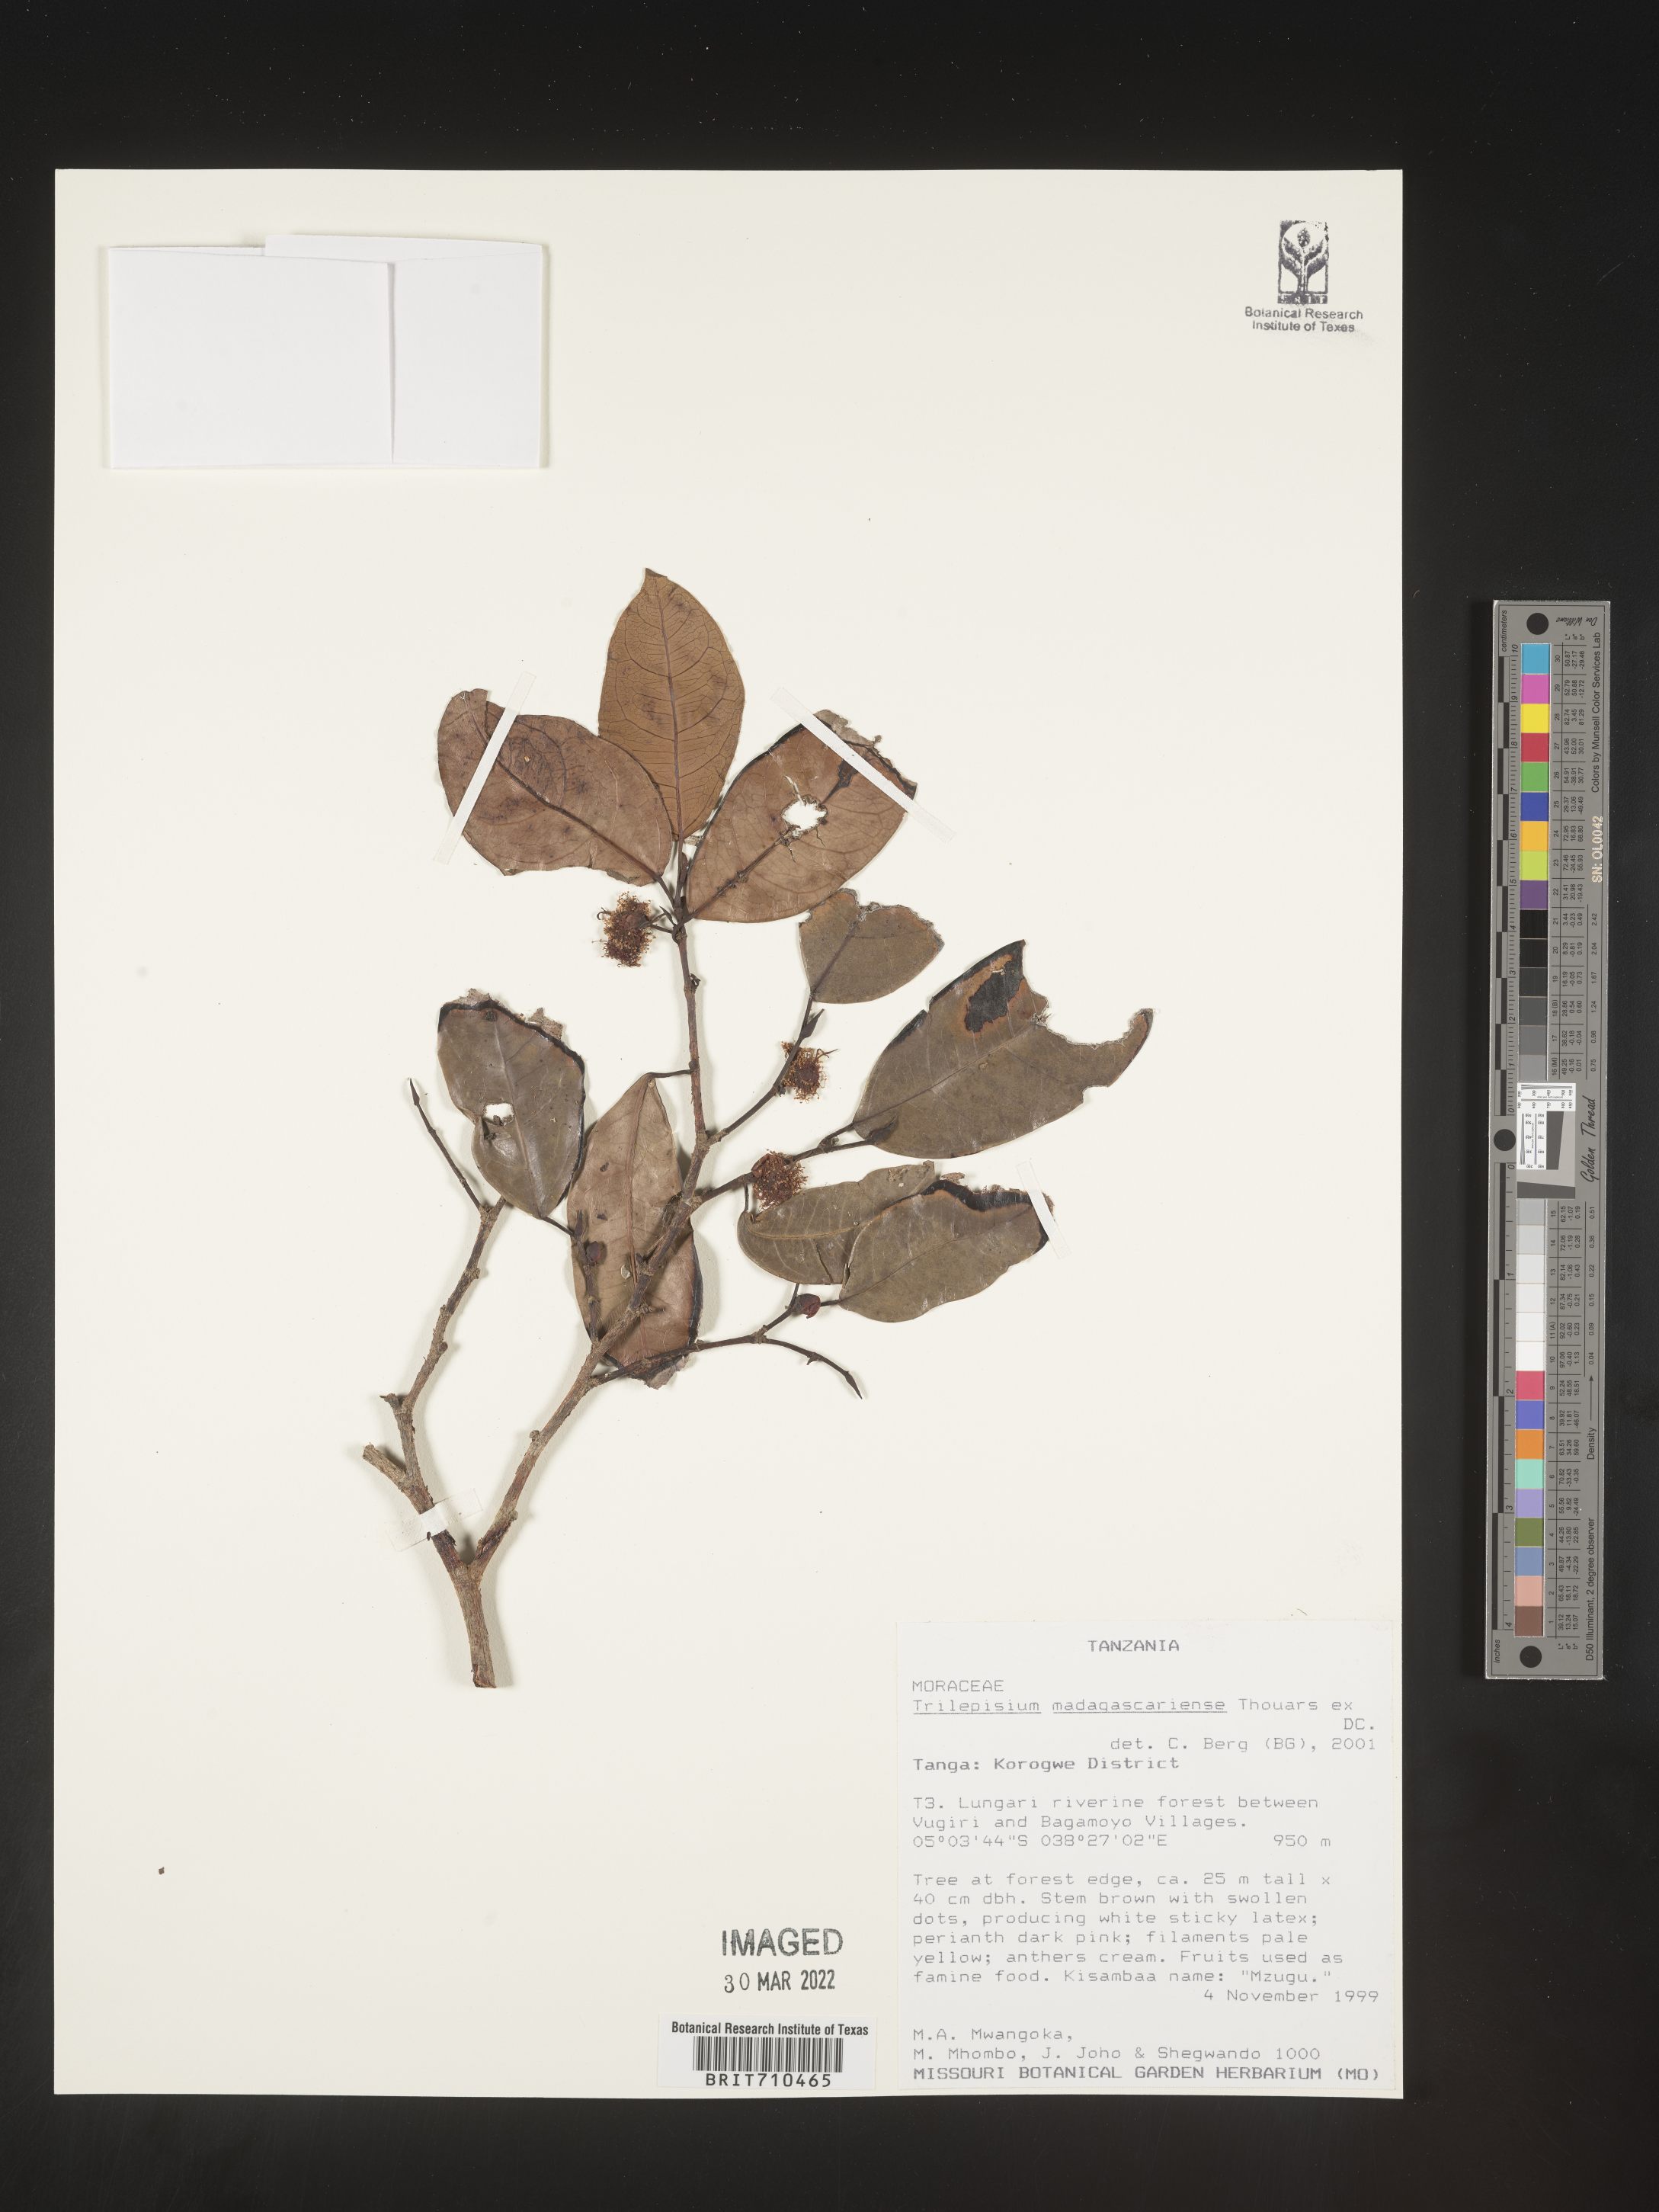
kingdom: Plantae
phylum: Tracheophyta
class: Magnoliopsida
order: Rosales
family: Moraceae
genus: Trilepisium
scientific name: Trilepisium
